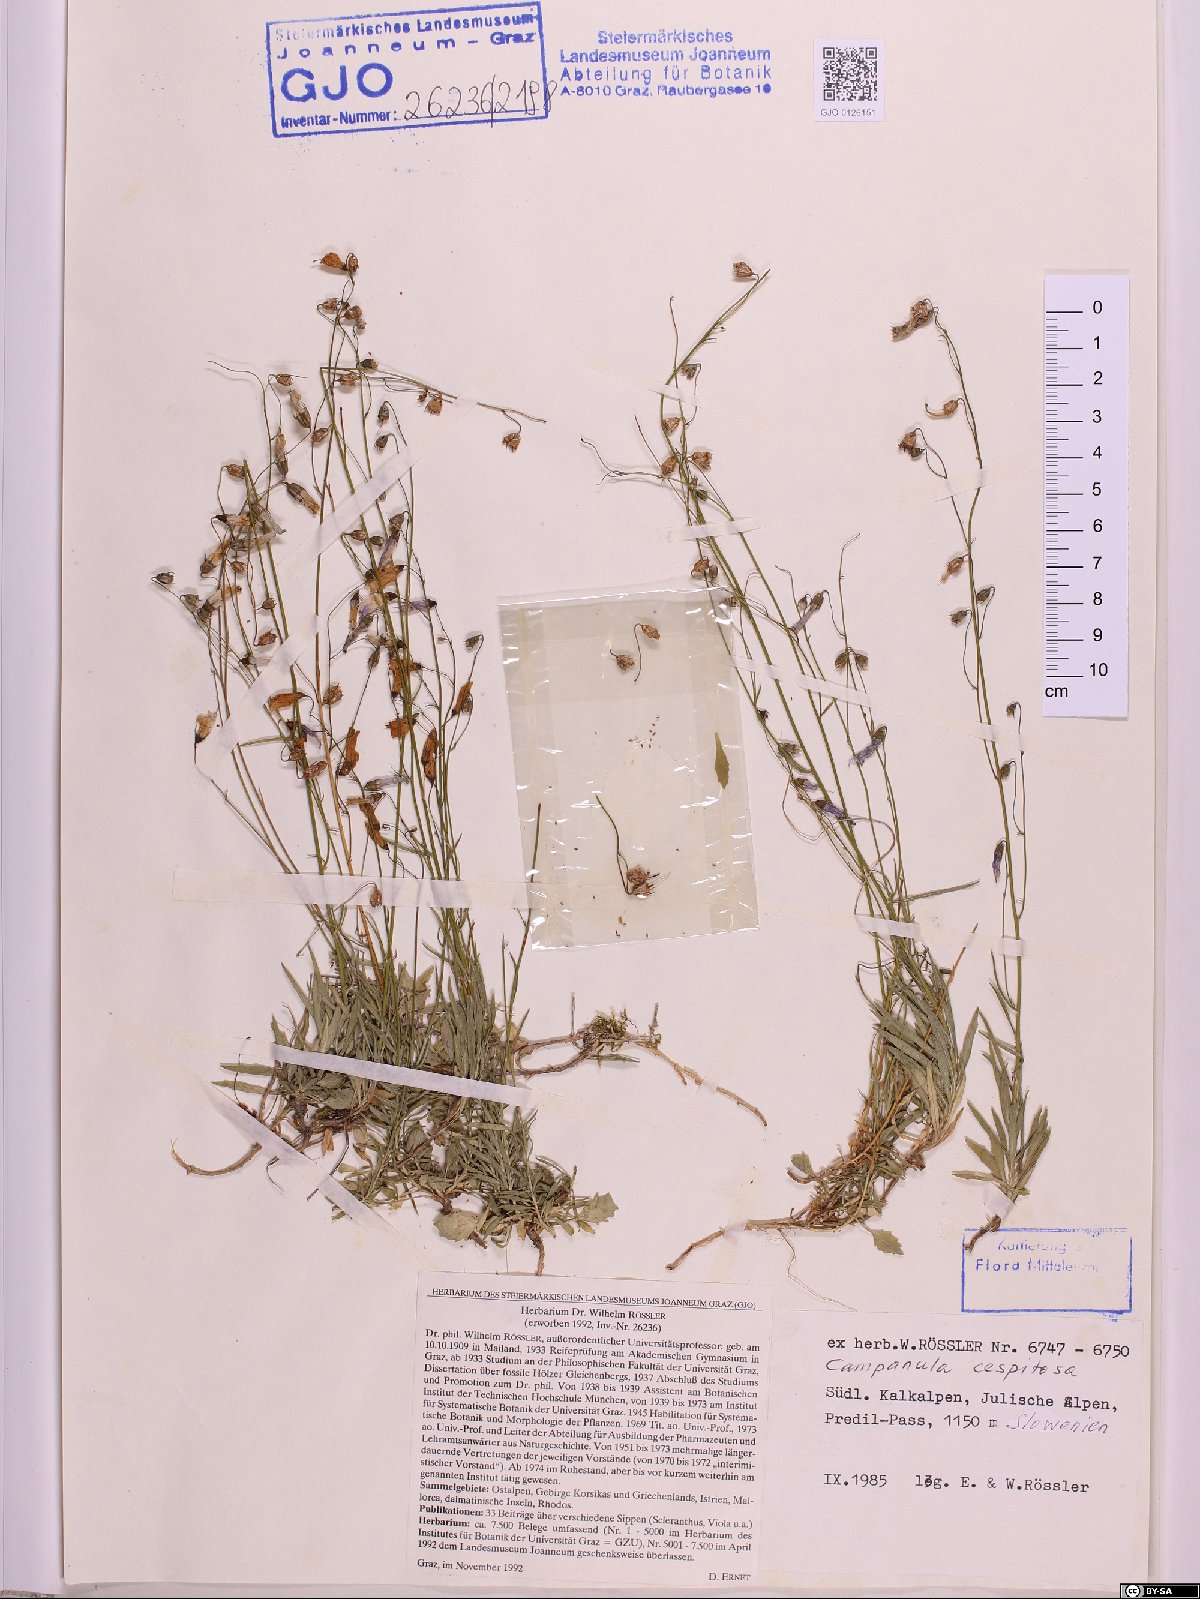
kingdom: Plantae
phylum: Tracheophyta
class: Magnoliopsida
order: Asterales
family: Campanulaceae
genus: Campanula
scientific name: Campanula cespitosa
